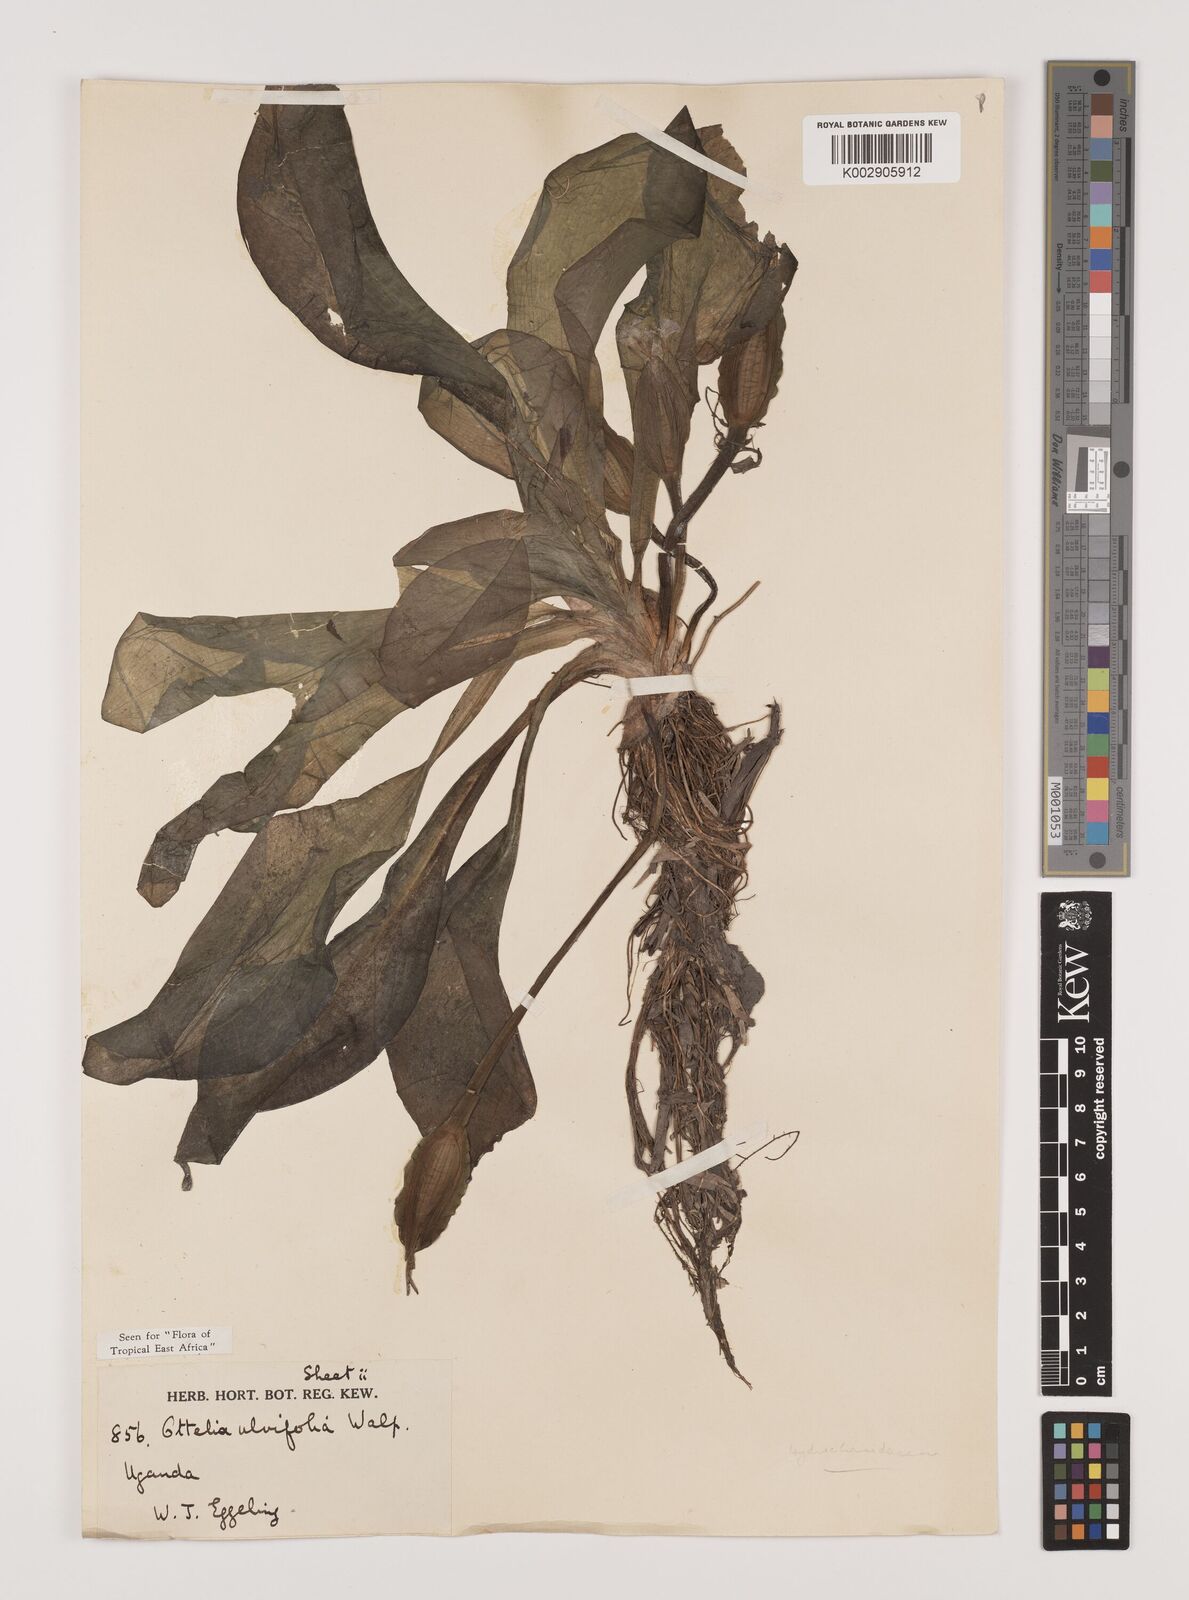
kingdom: Plantae
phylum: Tracheophyta
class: Liliopsida
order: Alismatales
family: Hydrocharitaceae
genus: Ottelia
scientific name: Ottelia ulvifolia
